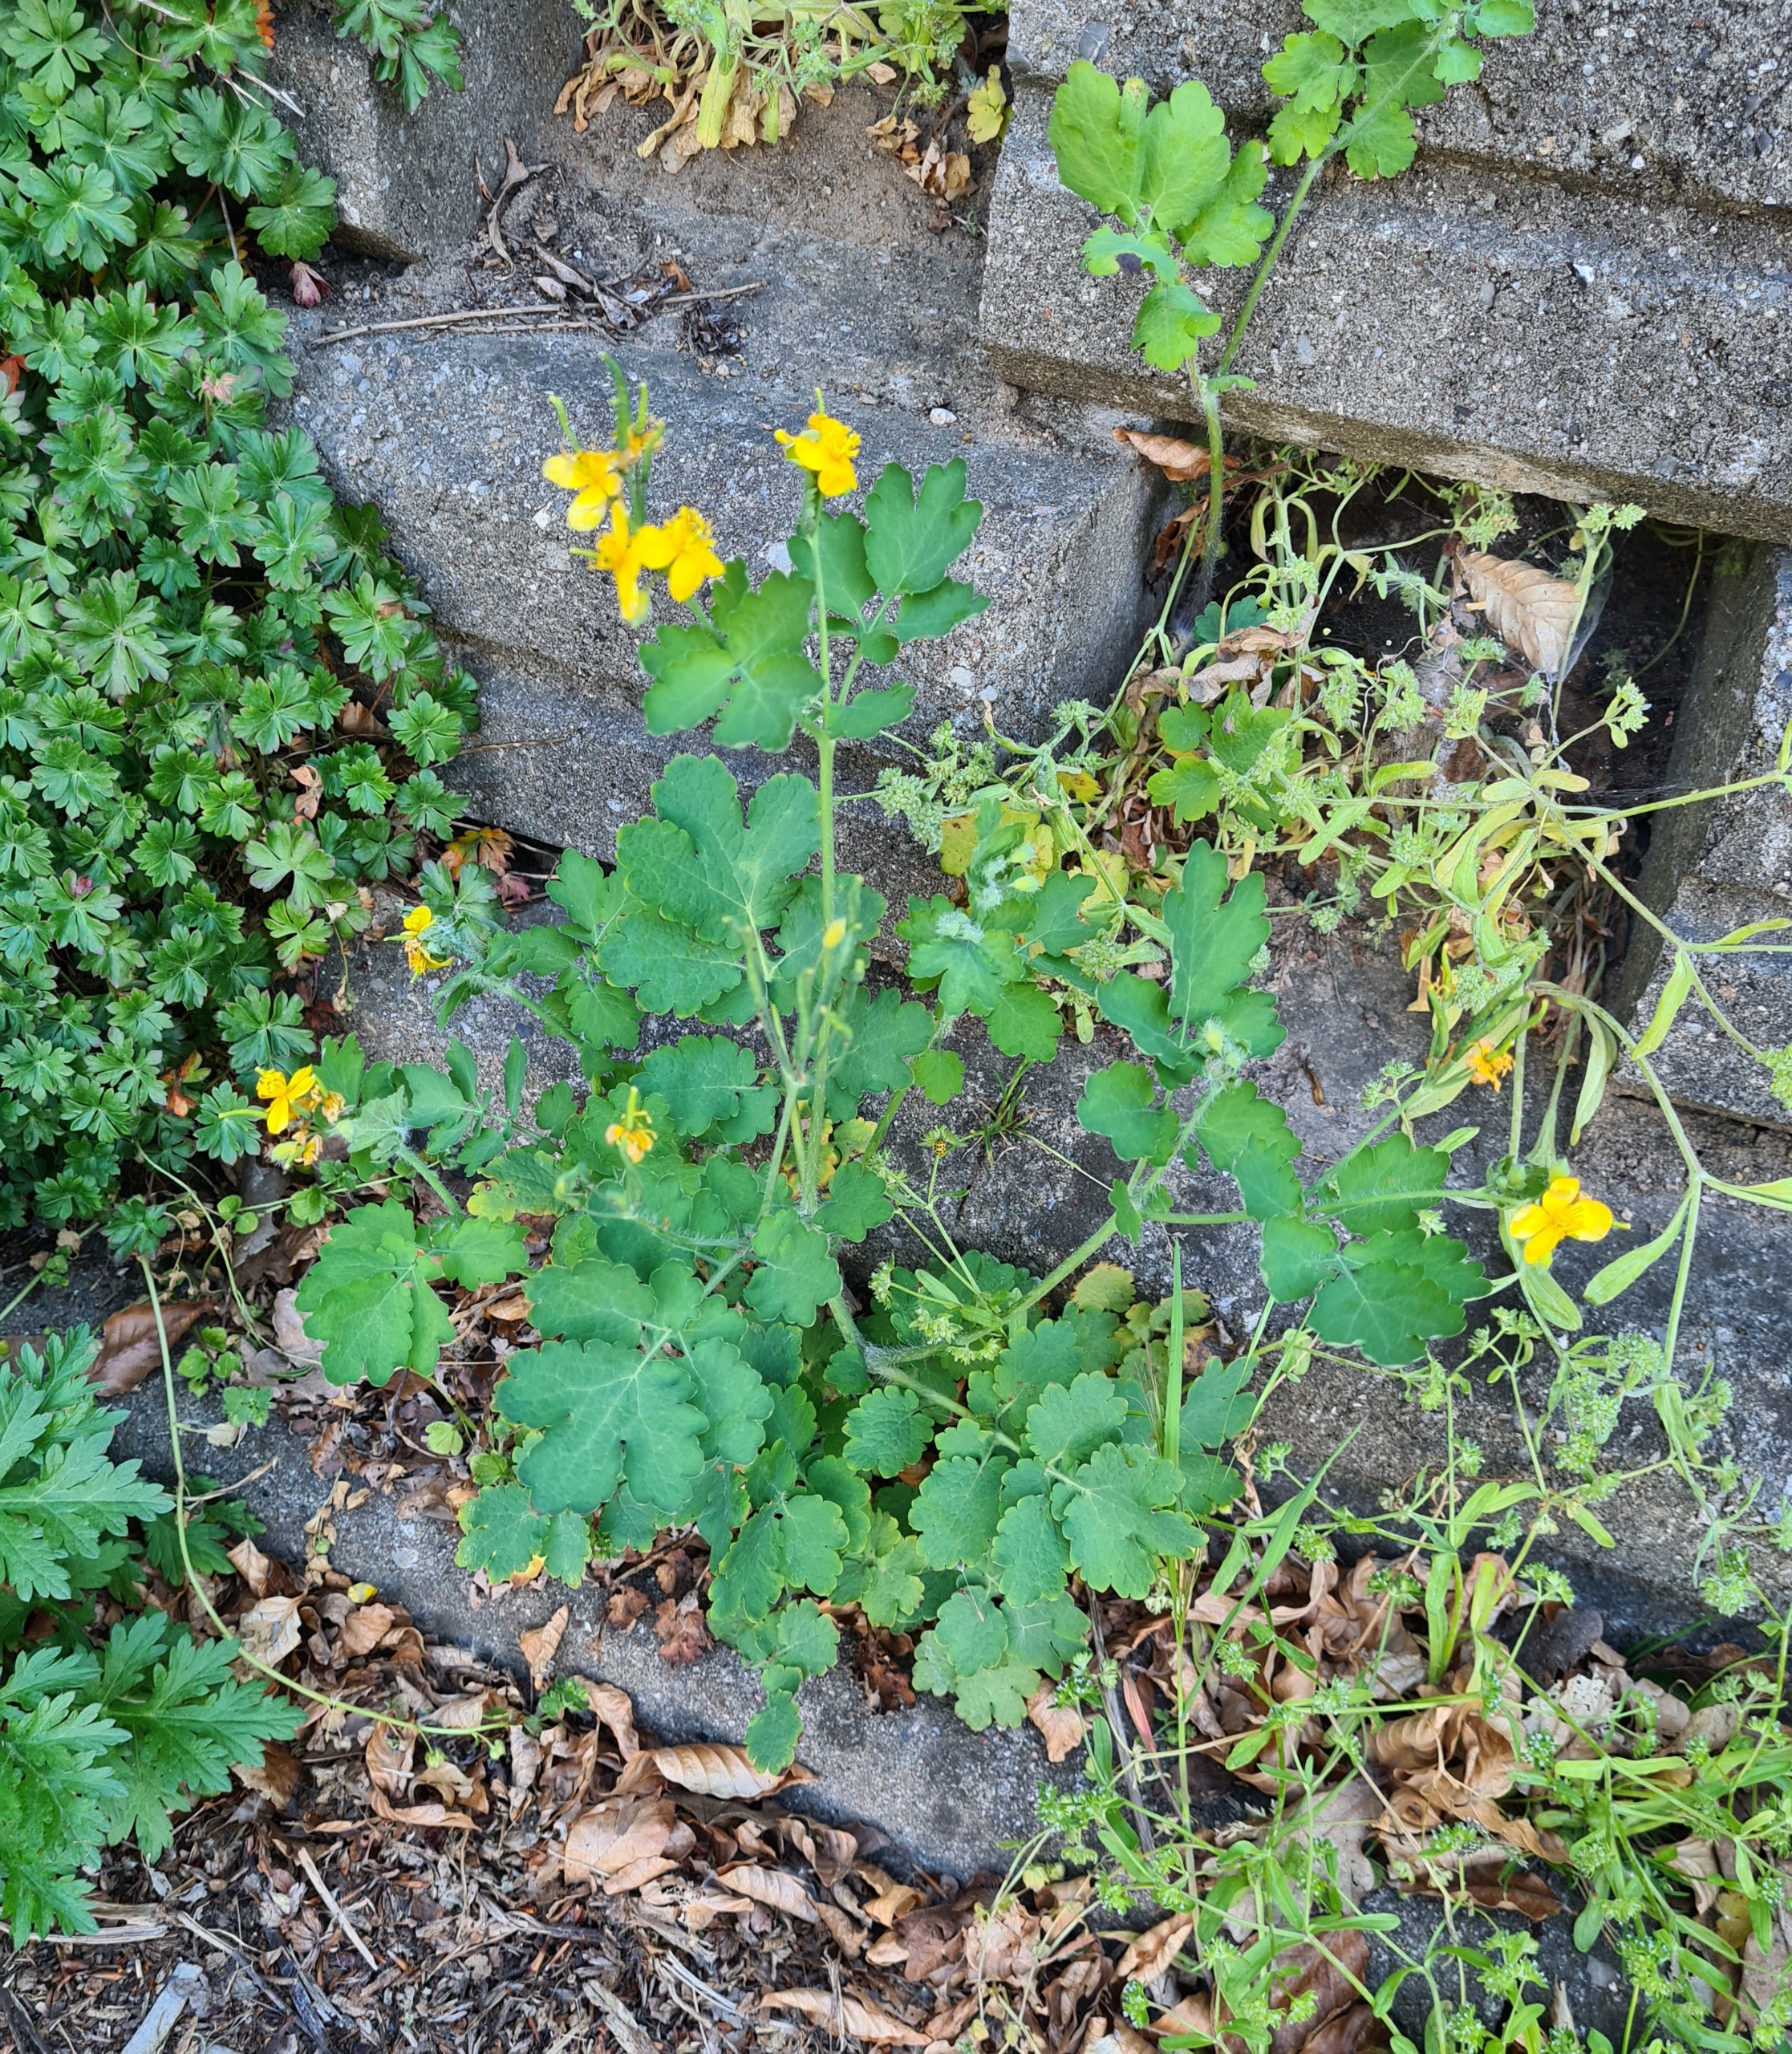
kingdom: Plantae
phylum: Tracheophyta
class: Magnoliopsida
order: Ranunculales
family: Papaveraceae
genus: Chelidonium
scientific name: Chelidonium majus
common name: Svaleurt
